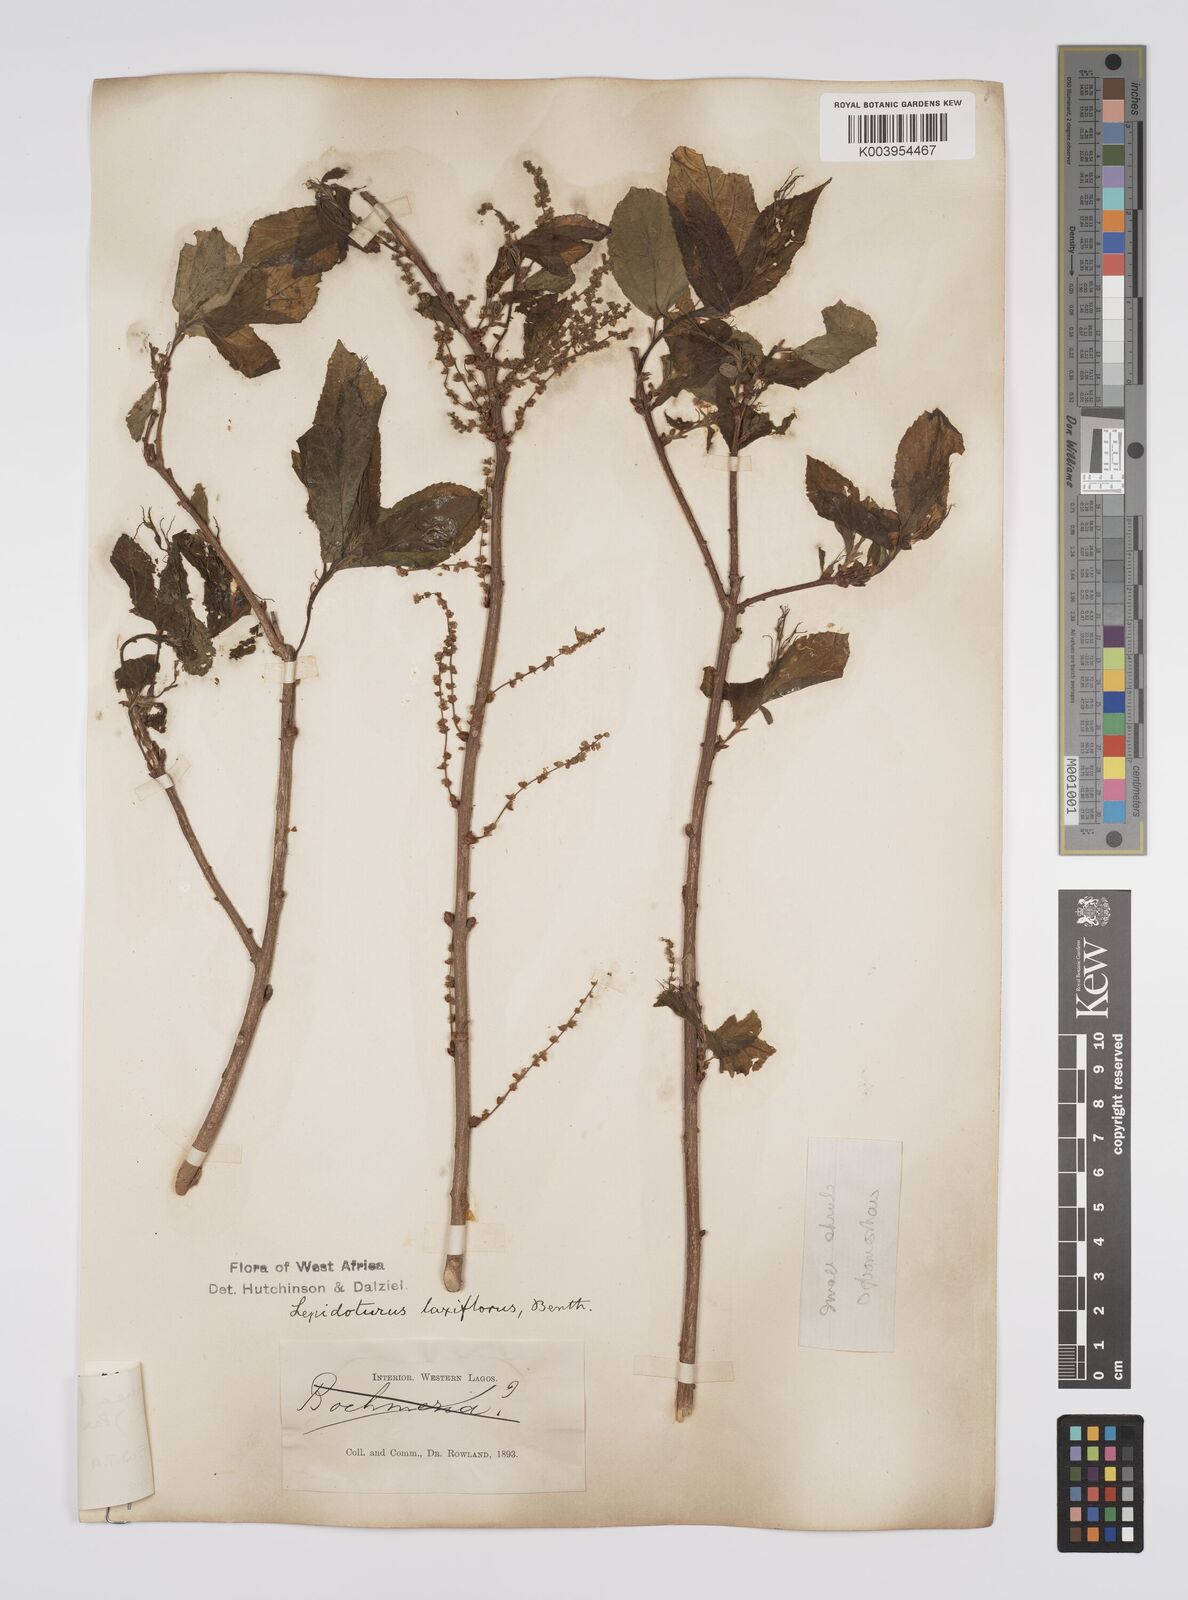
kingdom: Plantae
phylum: Tracheophyta
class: Magnoliopsida
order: Malpighiales
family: Euphorbiaceae
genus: Alchornea
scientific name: Alchornea laxiflora
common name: Lowveld bead-string
